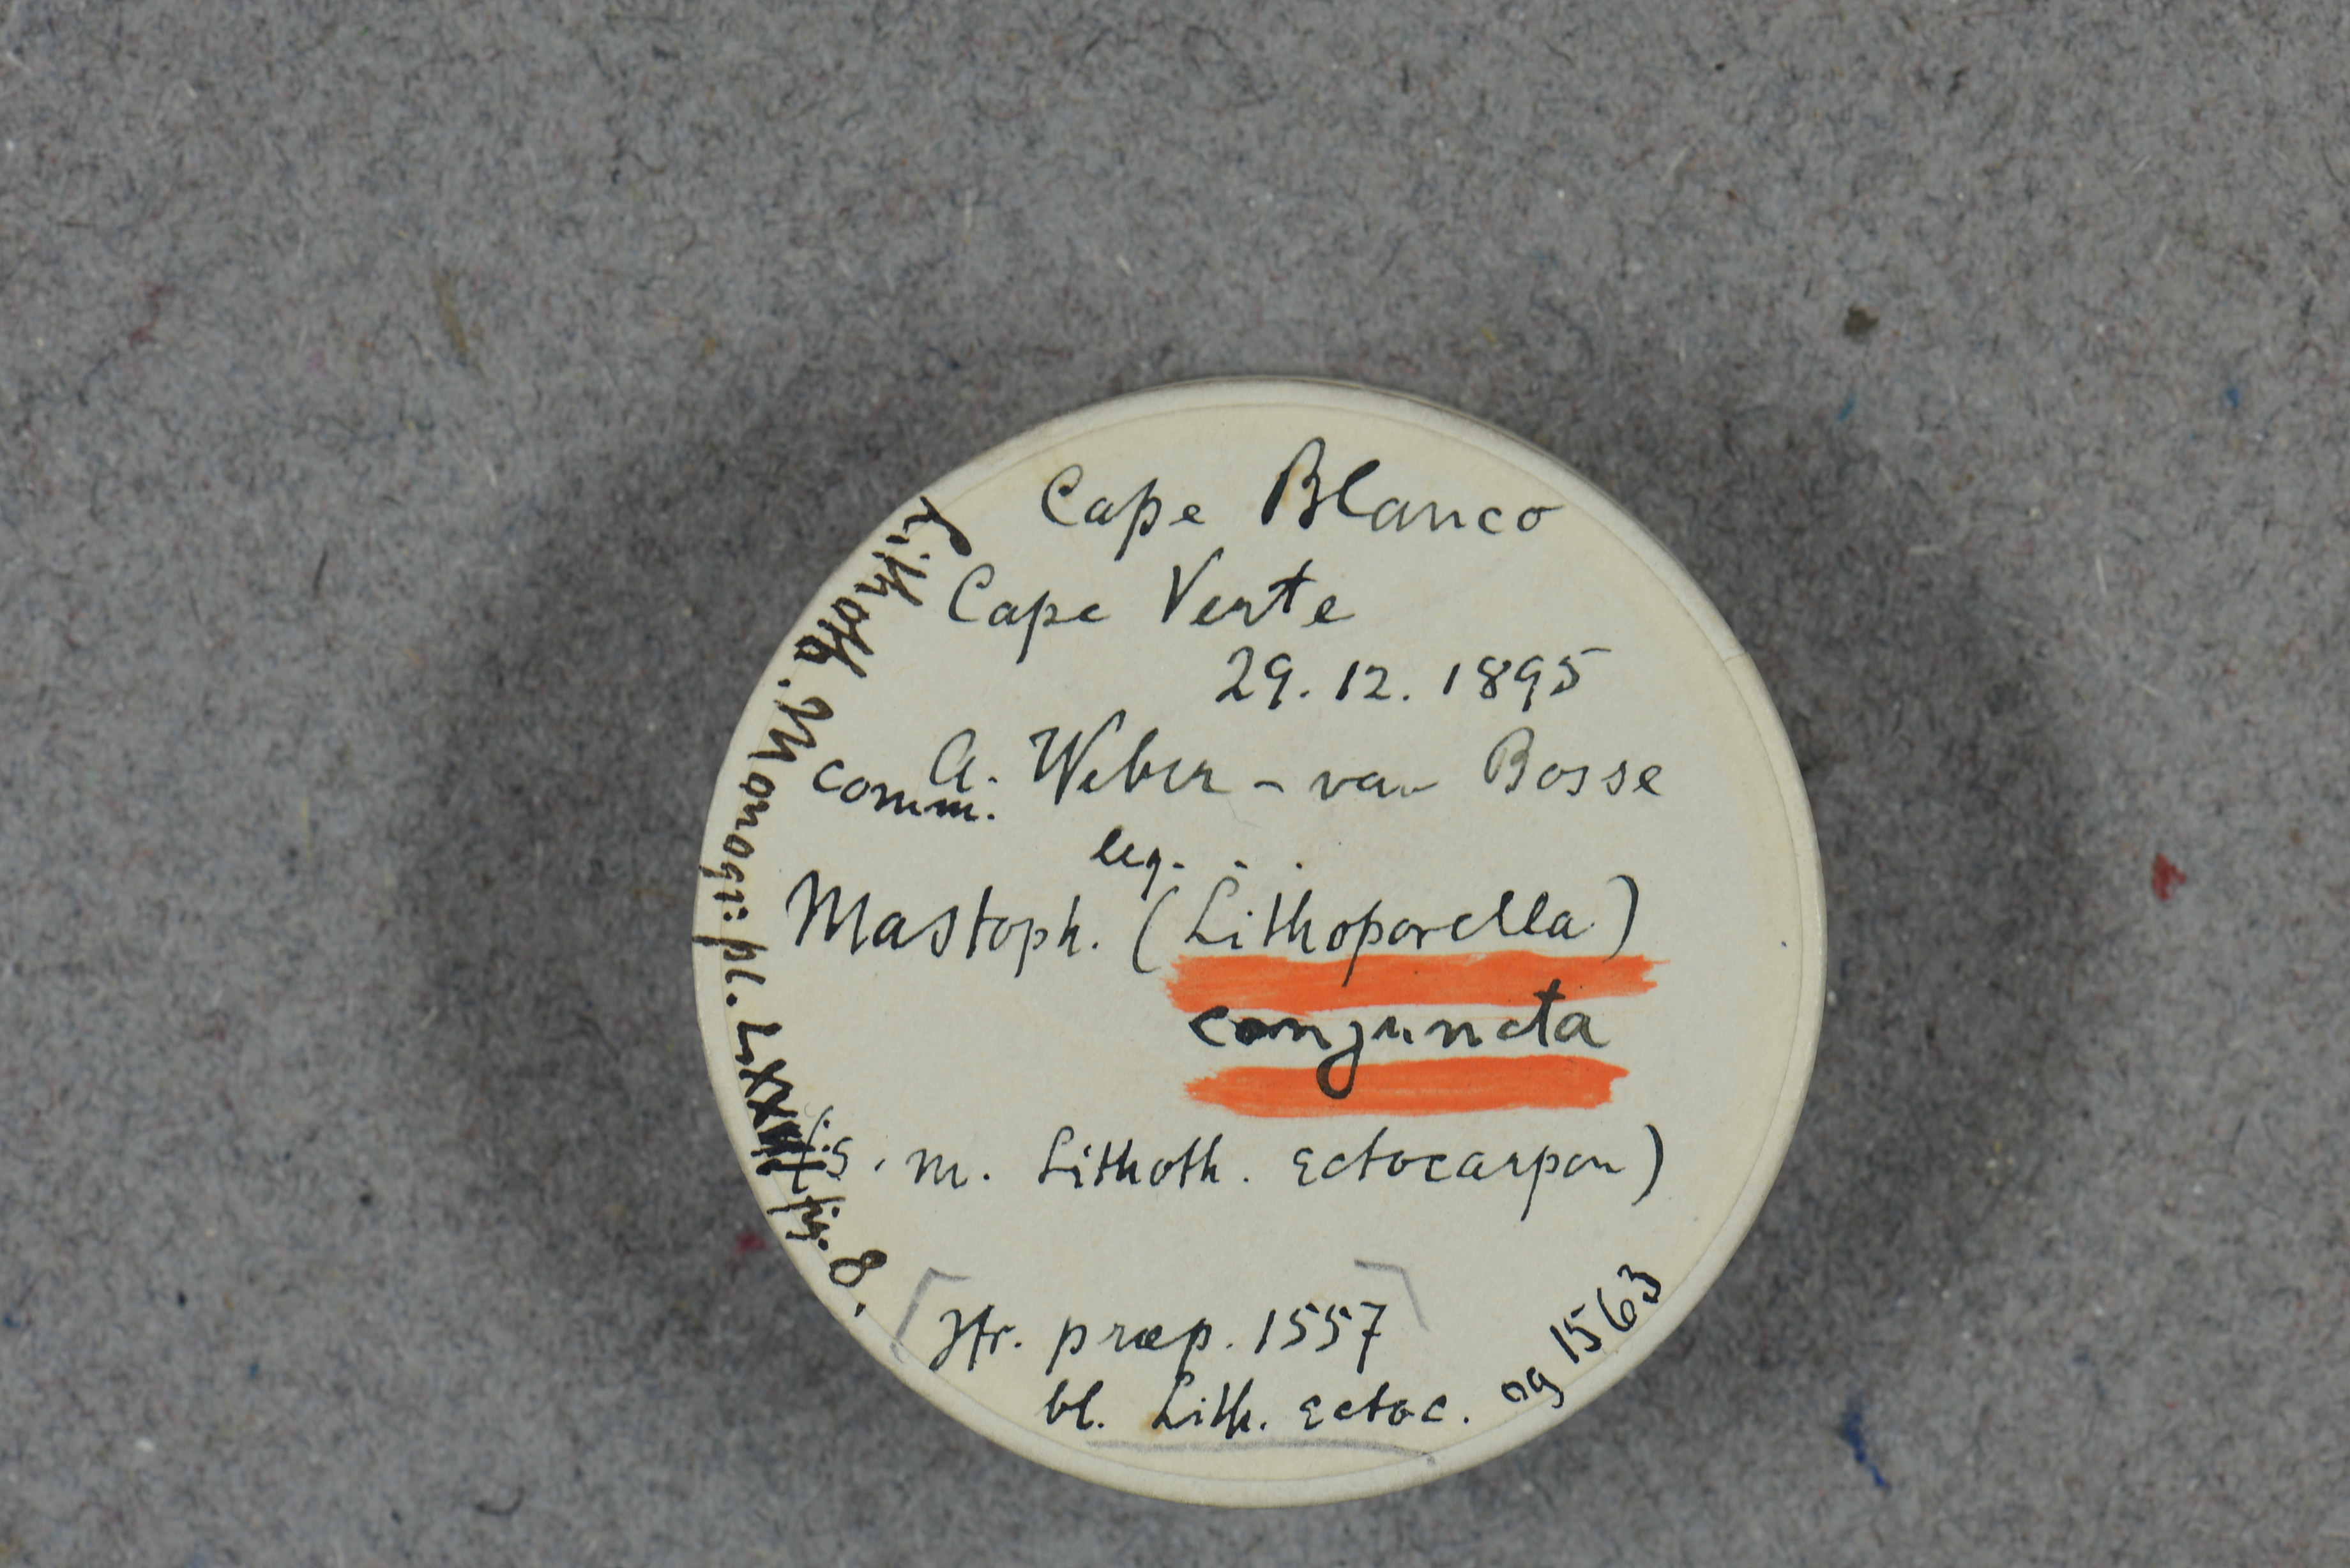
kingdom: Plantae
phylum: Rhodophyta
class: Florideophyceae
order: Corallinales
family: Mastophoraceae
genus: Lithoporella
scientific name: Lithoporella melobesioides
